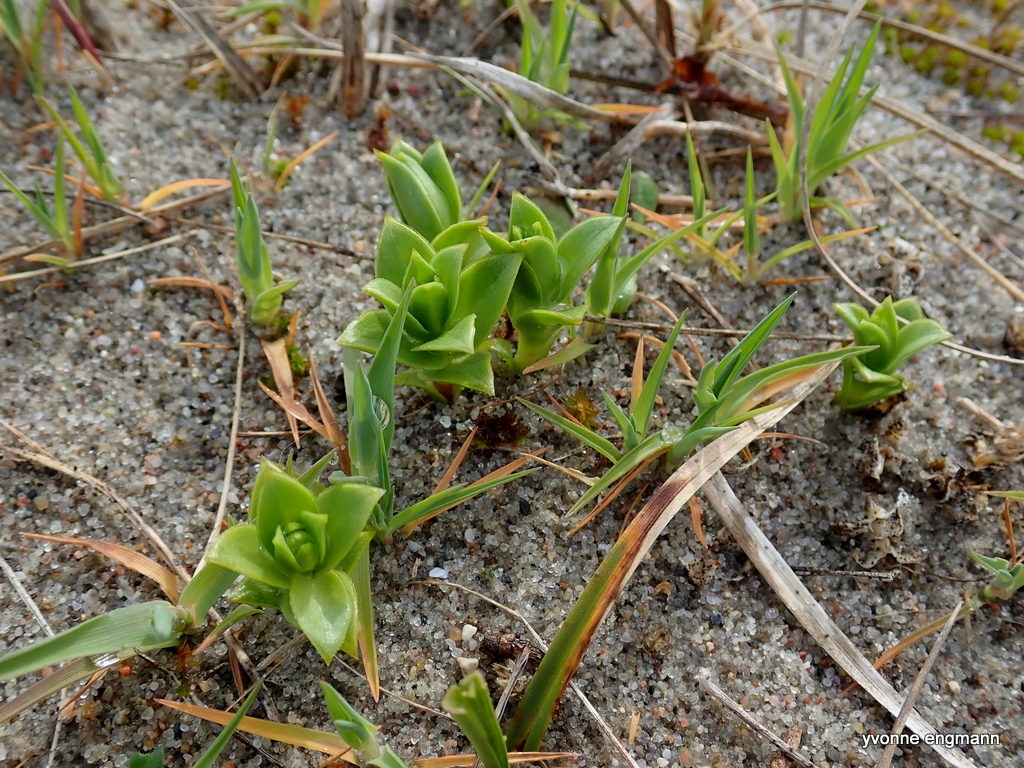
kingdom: Plantae
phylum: Tracheophyta
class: Magnoliopsida
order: Caryophyllales
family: Caryophyllaceae
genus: Honckenya
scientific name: Honckenya peploides
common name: Strandarve
